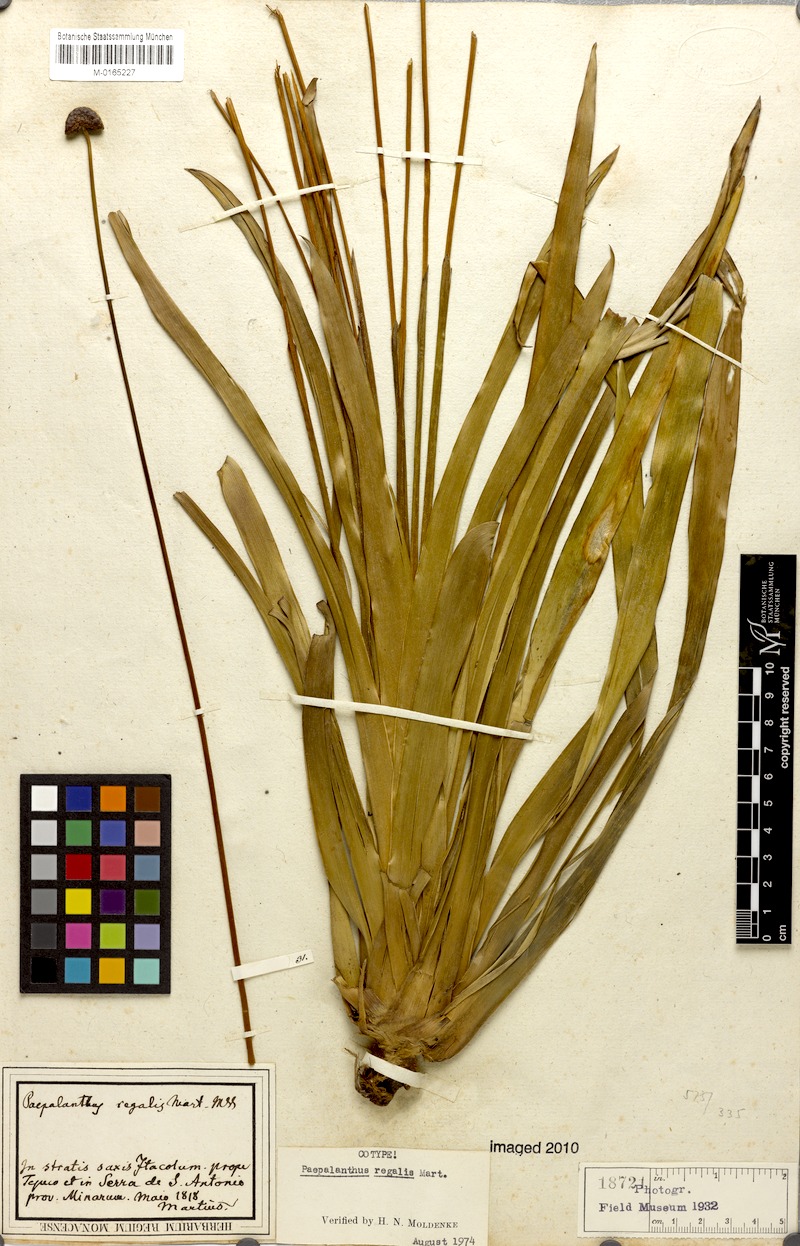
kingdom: Plantae
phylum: Tracheophyta
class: Liliopsida
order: Poales
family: Eriocaulaceae
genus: Paepalanthus
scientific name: Paepalanthus regalis
